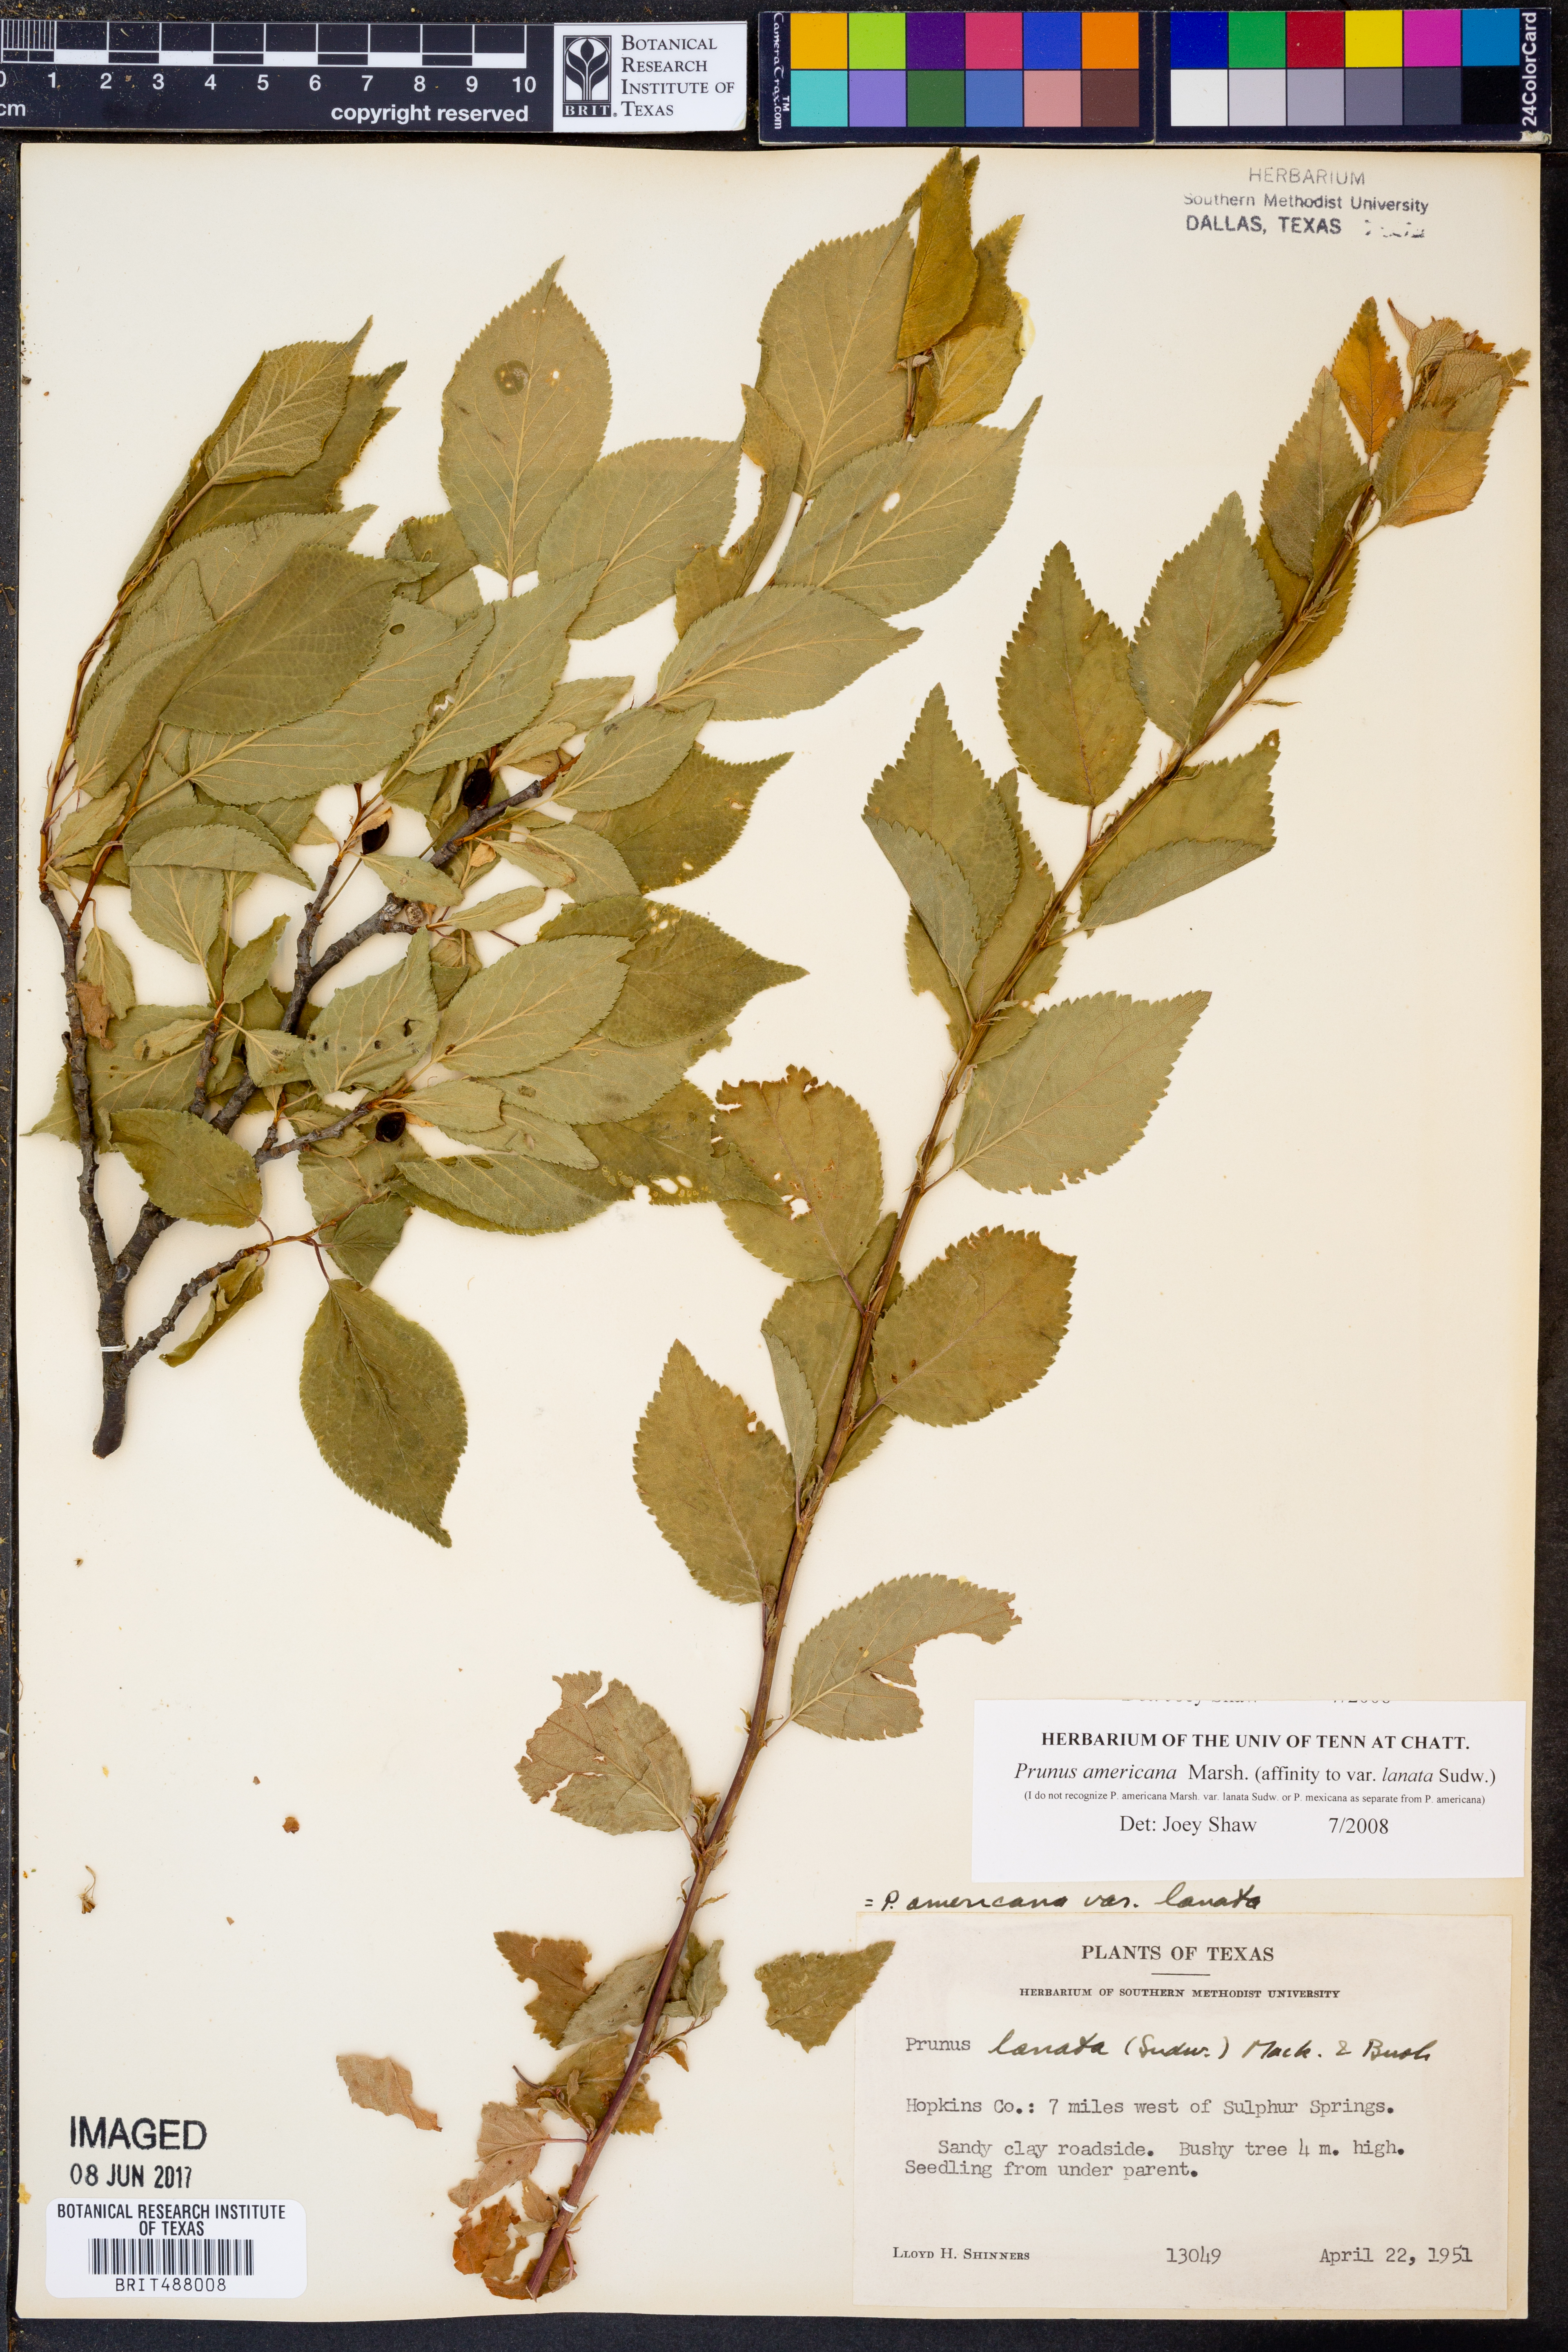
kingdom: Plantae
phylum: Tracheophyta
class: Magnoliopsida
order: Rosales
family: Rosaceae
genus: Prunus
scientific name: Prunus americana
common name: American plum
